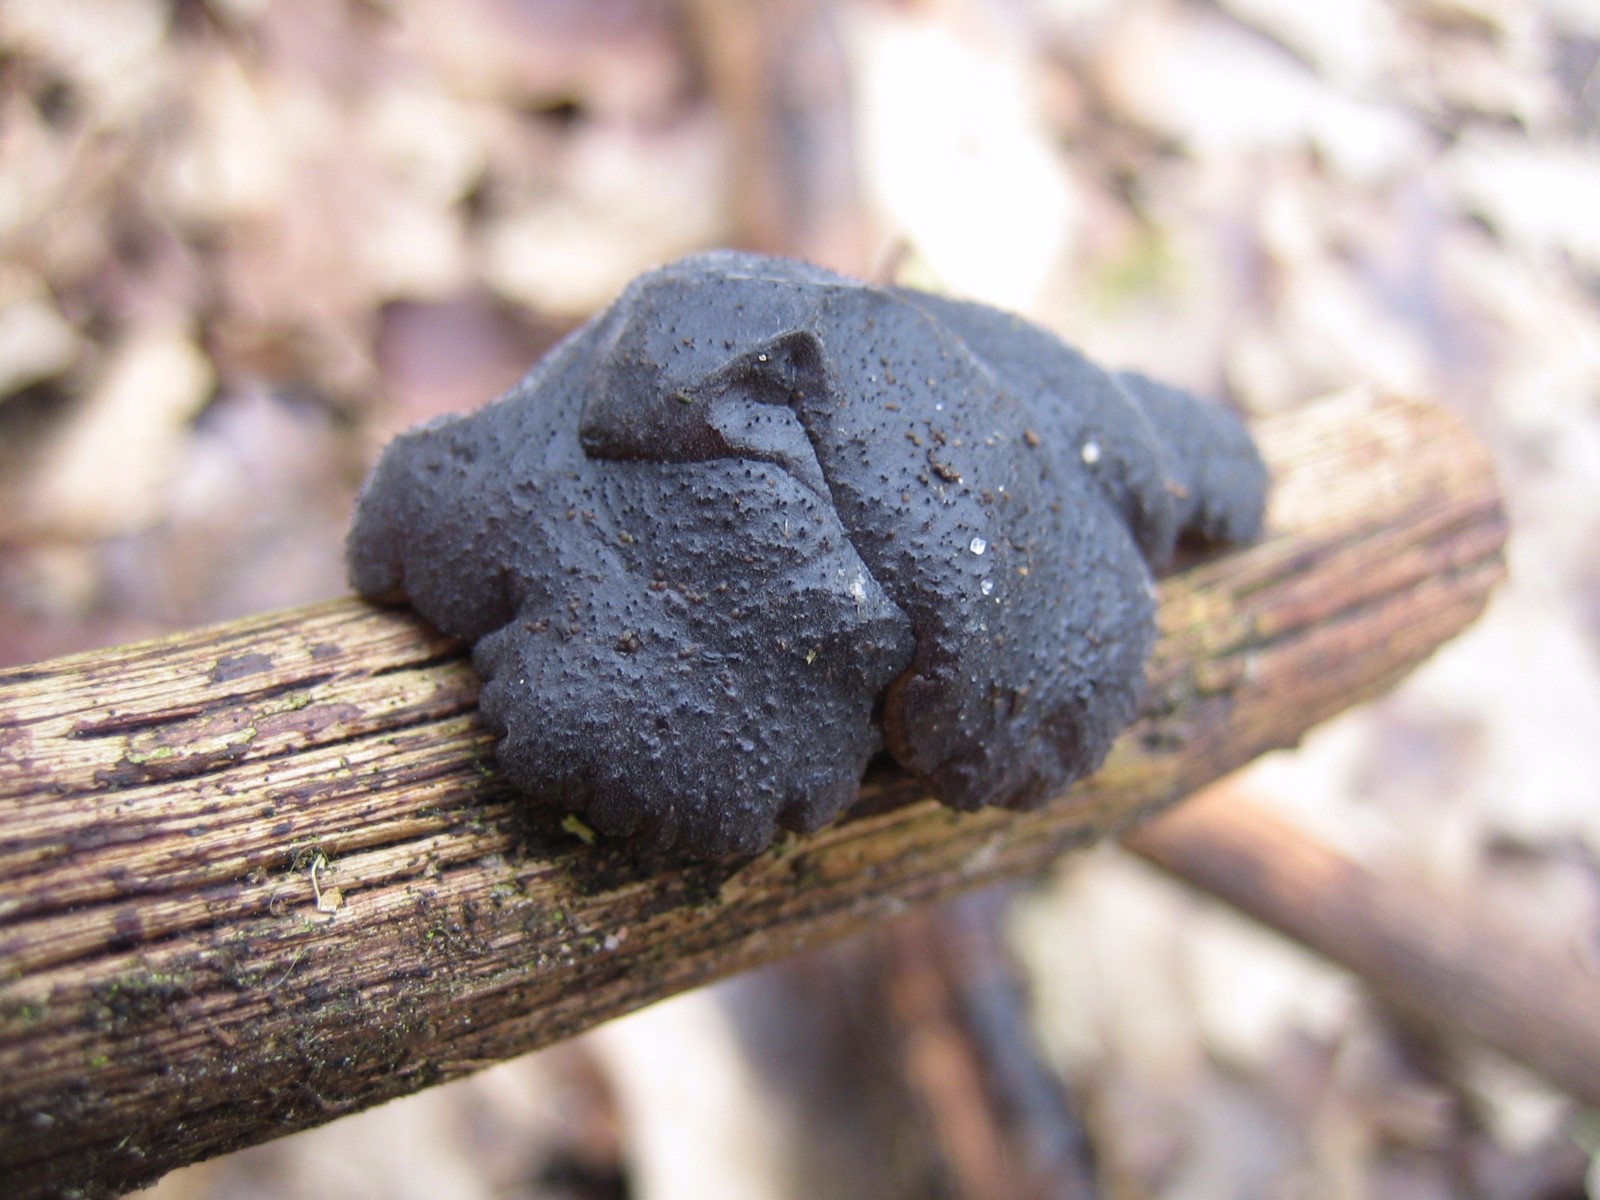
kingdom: Fungi
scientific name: Fungi
